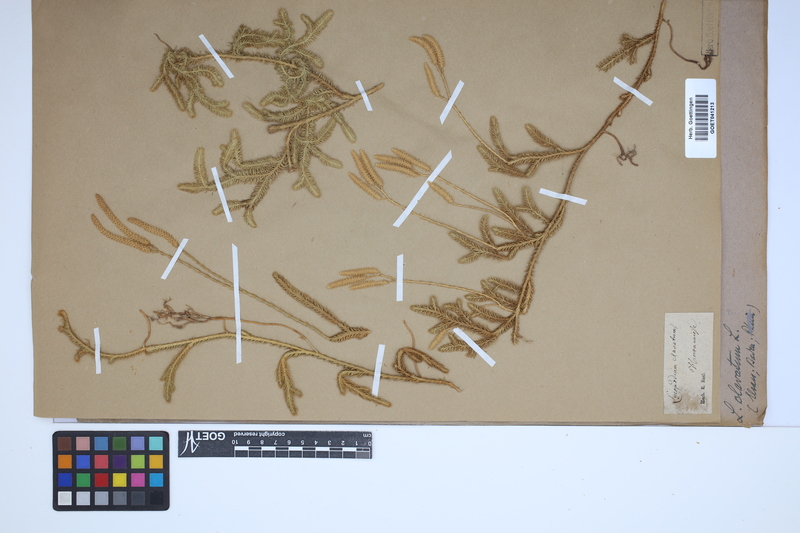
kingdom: Plantae
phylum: Tracheophyta
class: Lycopodiopsida
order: Lycopodiales
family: Lycopodiaceae
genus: Lycopodium
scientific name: Lycopodium clavatum
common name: Stag's-horn clubmoss
